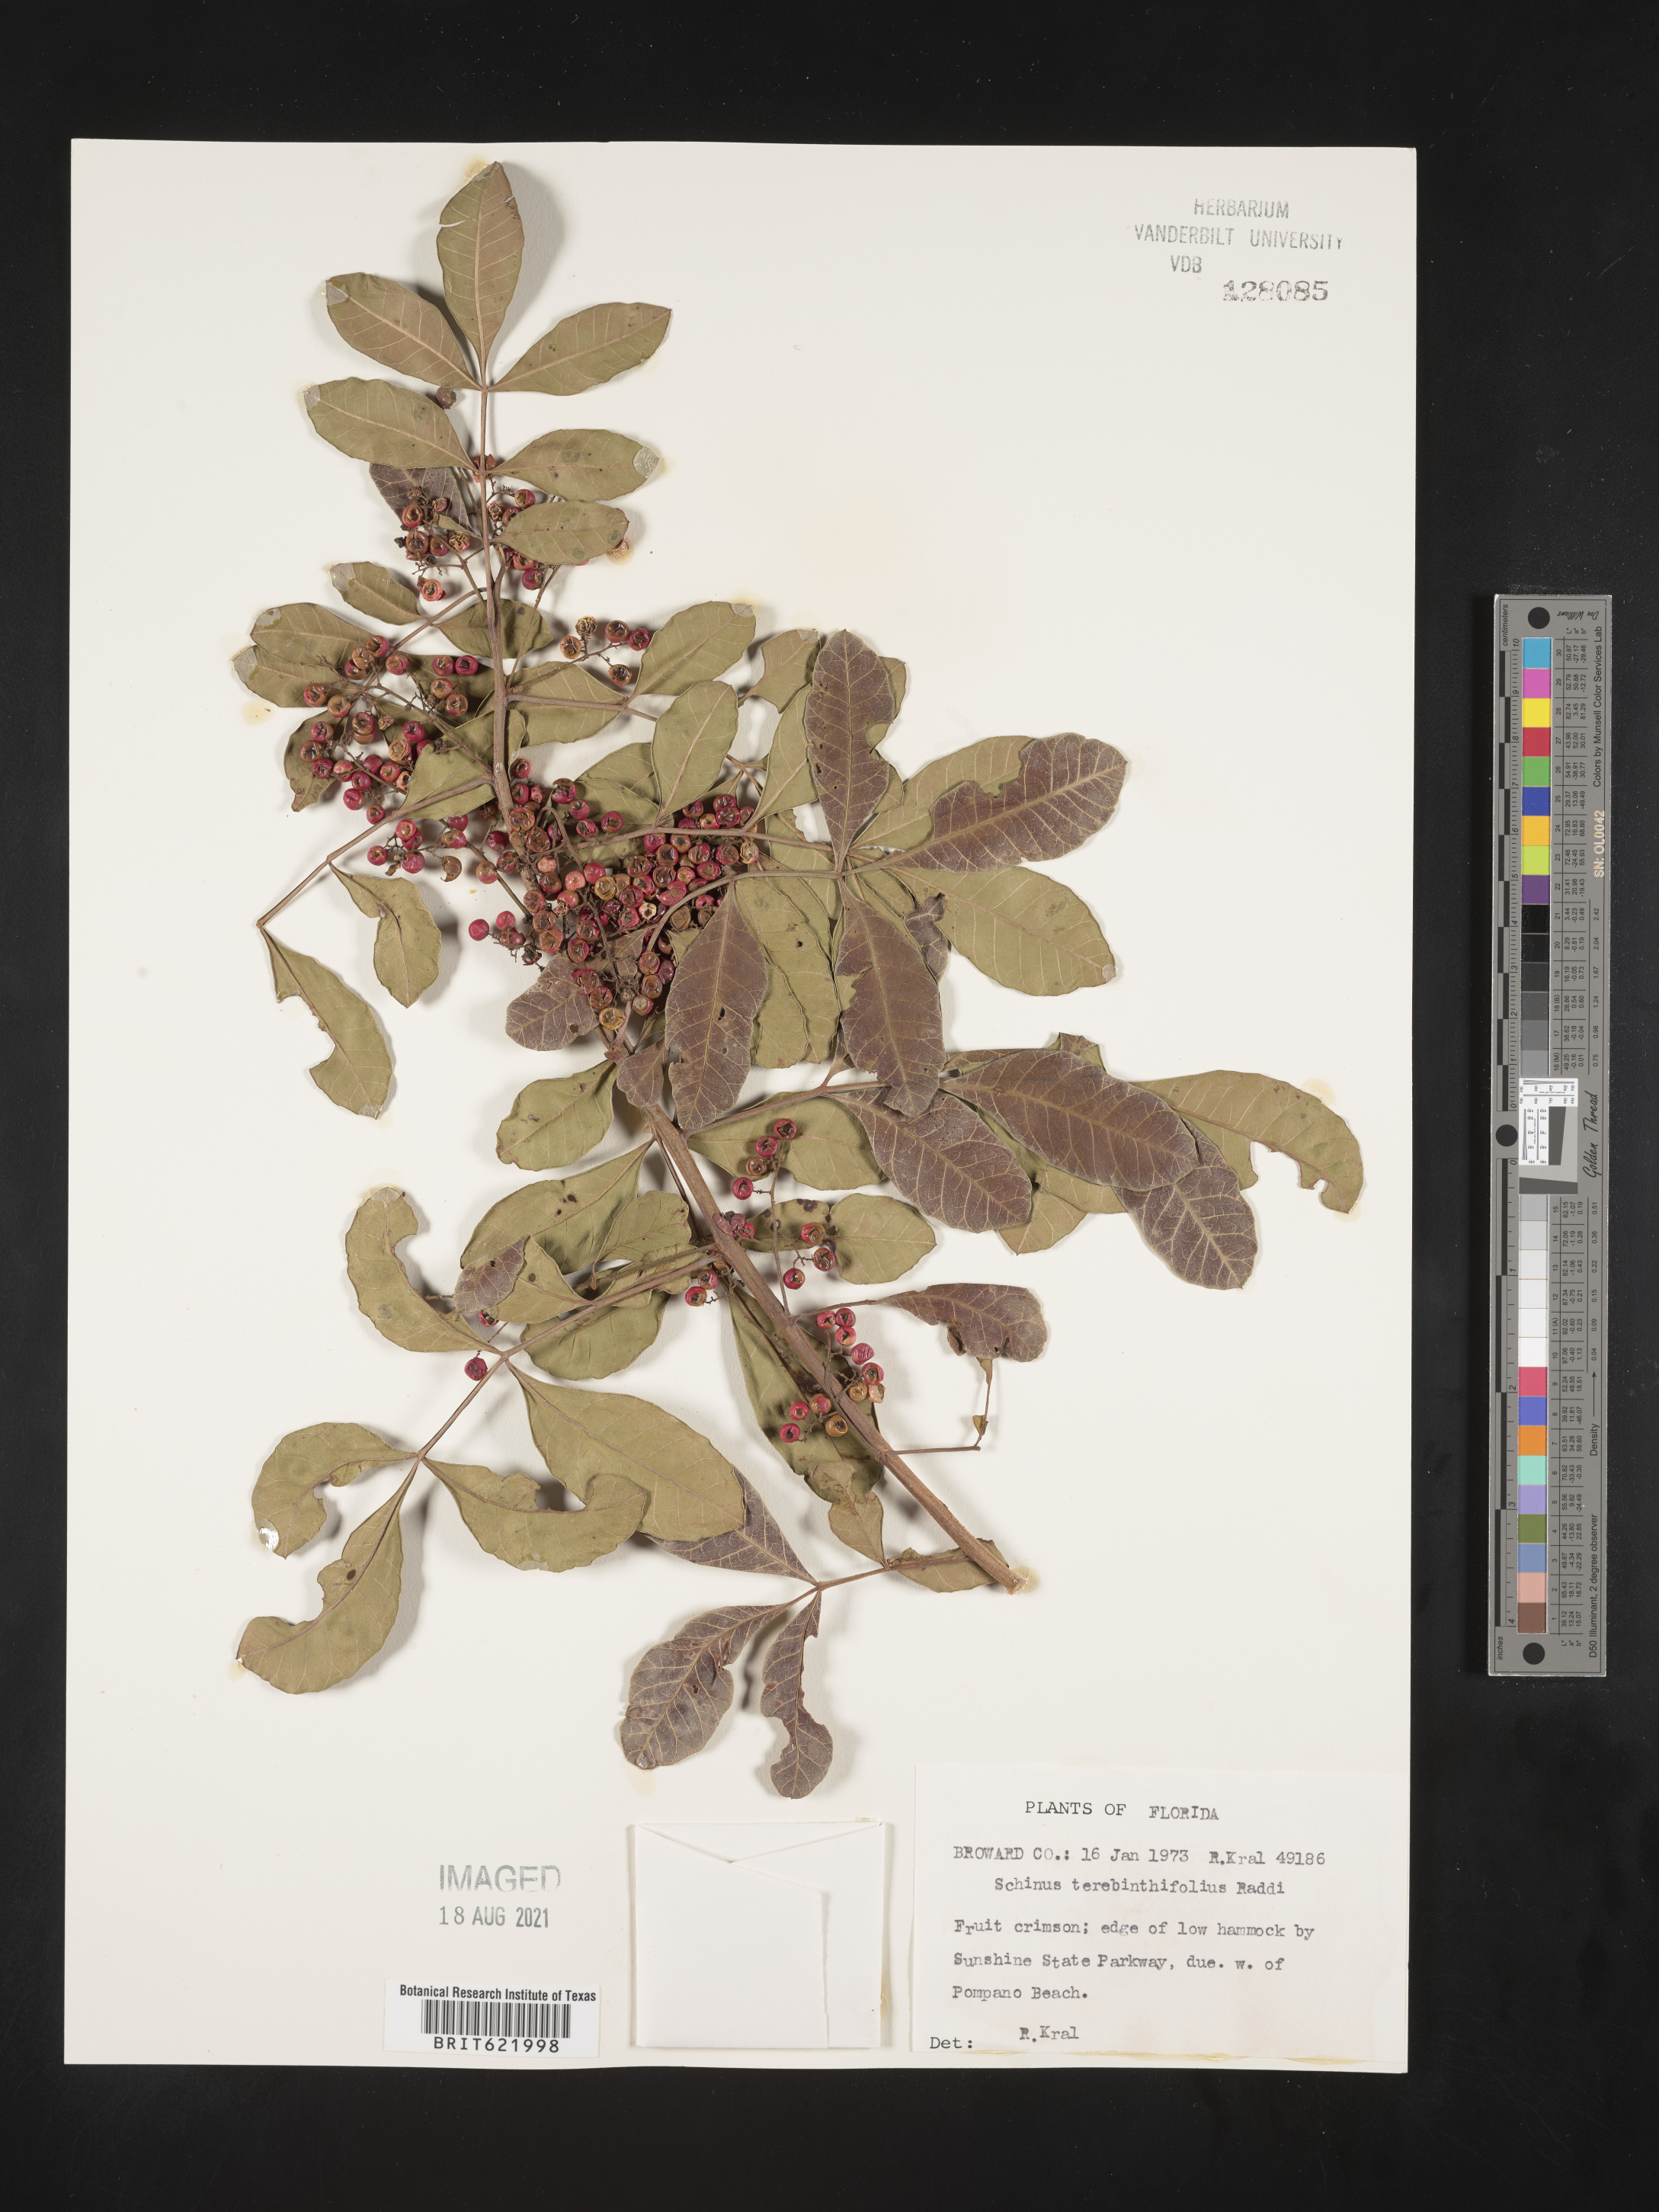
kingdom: Plantae
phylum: Tracheophyta
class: Magnoliopsida
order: Sapindales
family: Anacardiaceae
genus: Schinus
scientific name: Schinus terebinthifolia
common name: Brazilian peppertree
